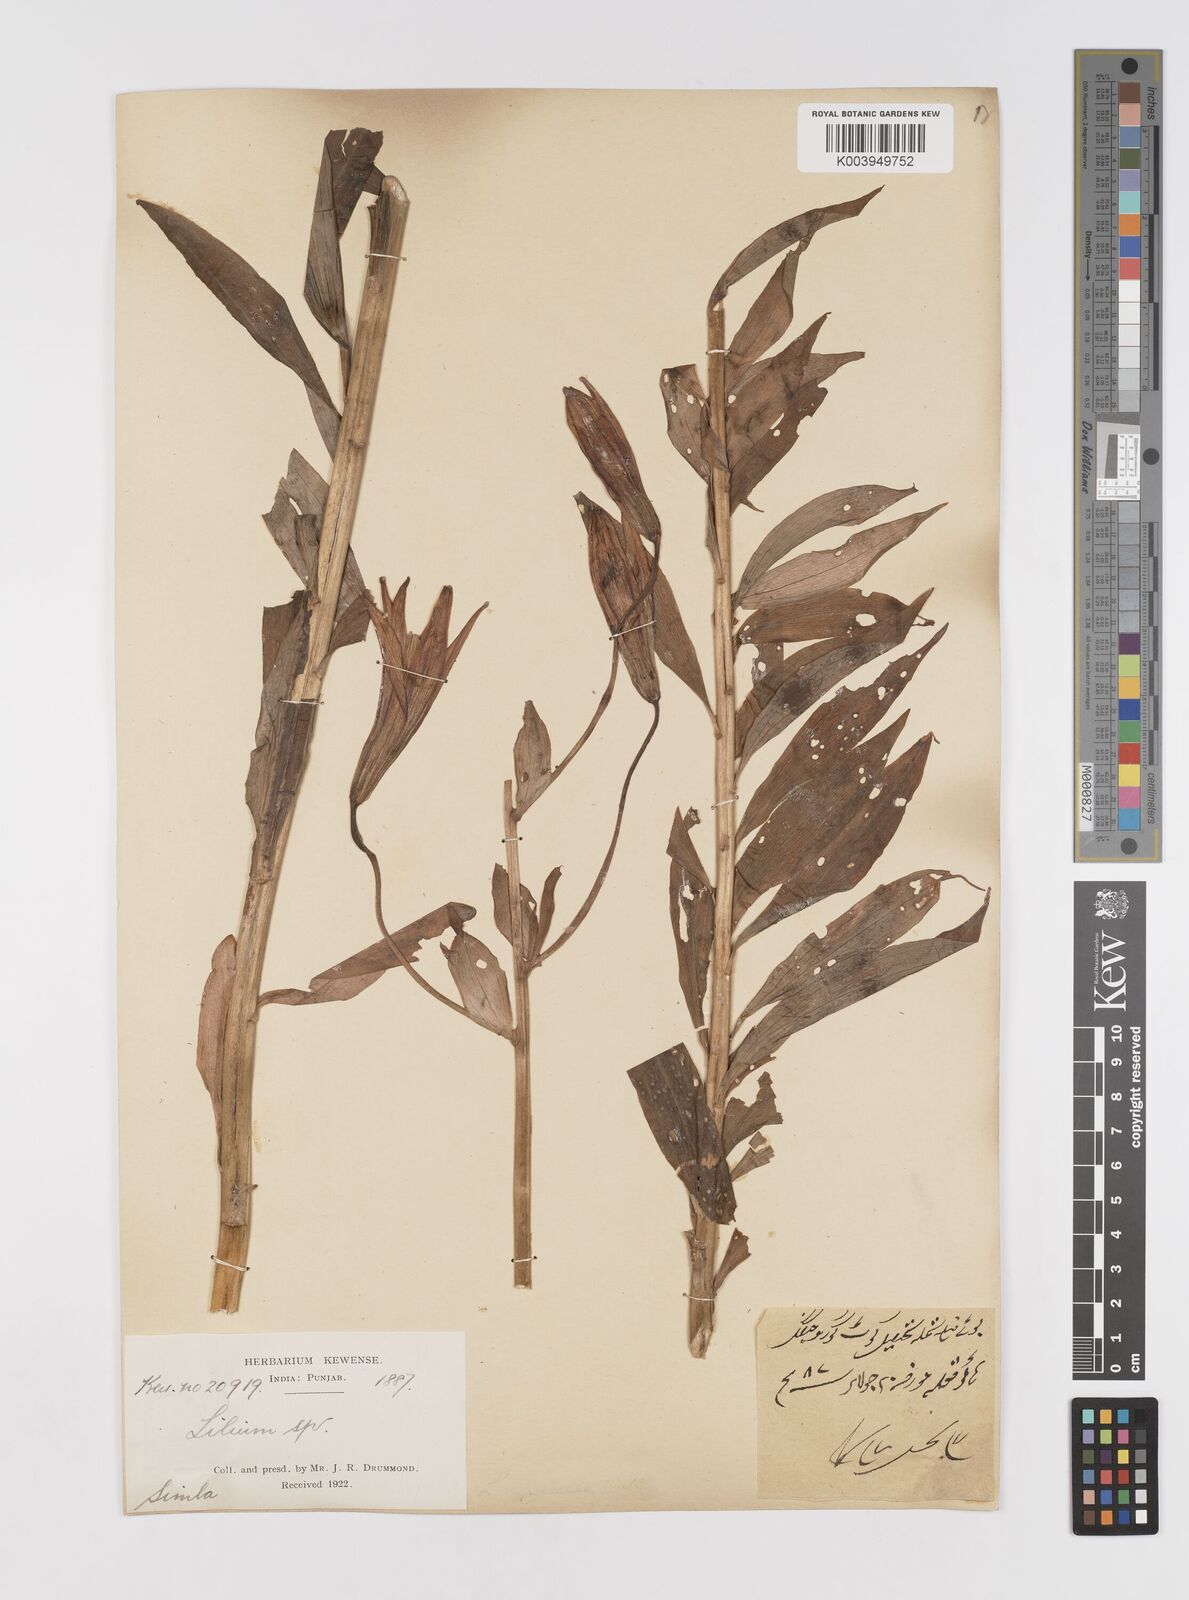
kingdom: Plantae
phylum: Tracheophyta
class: Liliopsida
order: Liliales
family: Liliaceae
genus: Lilium
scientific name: Lilium polyphyllum
